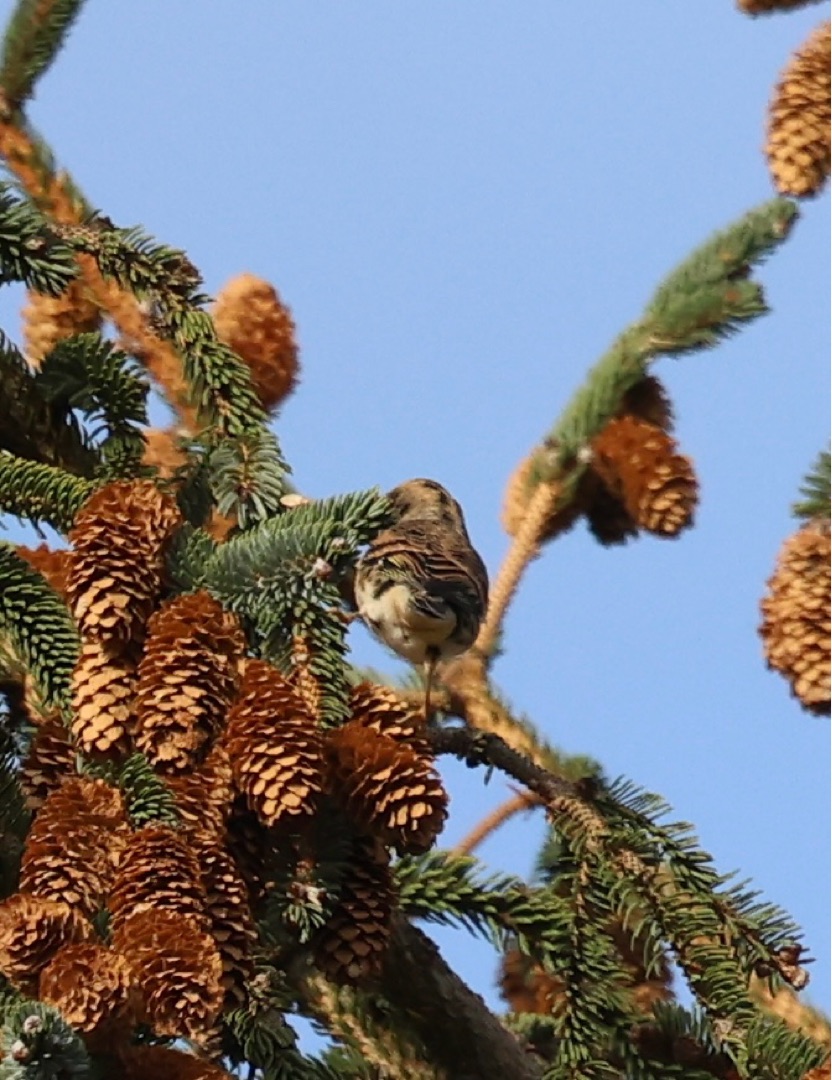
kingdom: Animalia
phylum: Chordata
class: Aves
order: Passeriformes
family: Fringillidae
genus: Fringilla
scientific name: Fringilla montifringilla
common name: Kvækerfinke
